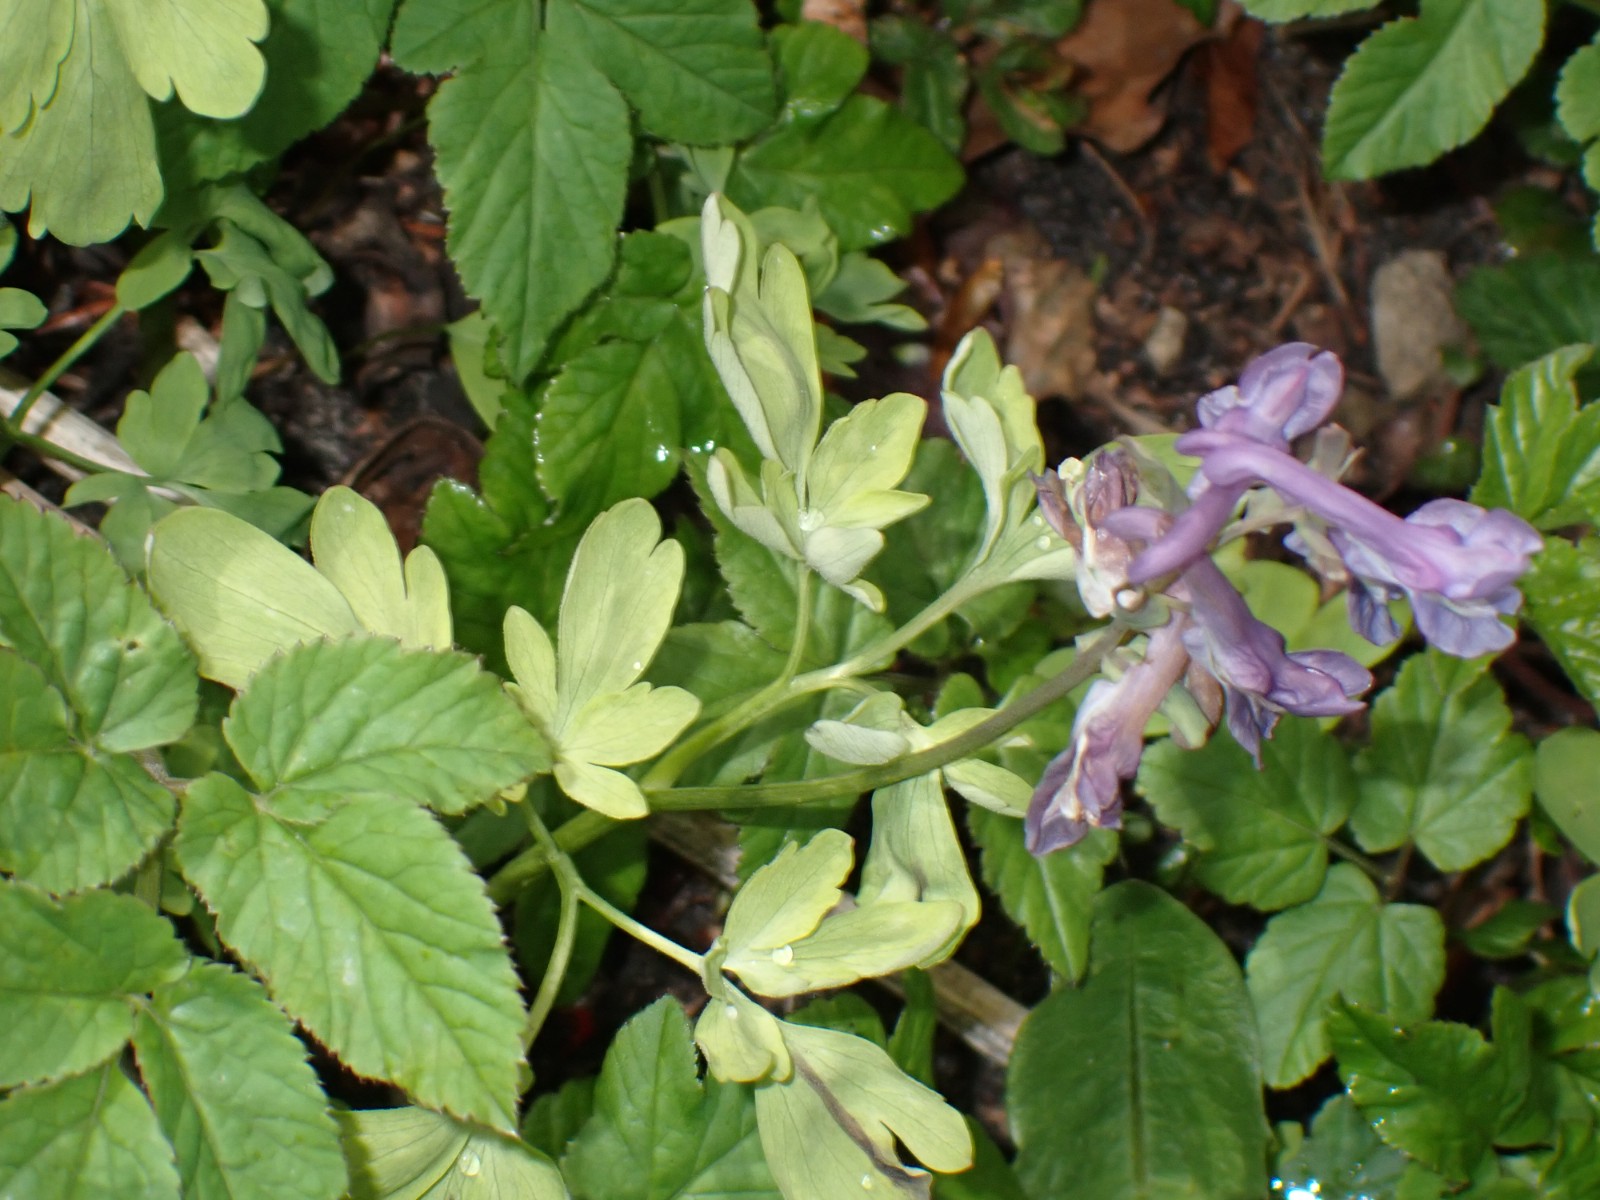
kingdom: Chromista
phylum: Oomycota
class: Peronosporea
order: Peronosporales
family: Peronosporaceae
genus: Peronospora
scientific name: Peronospora bulbocapni
